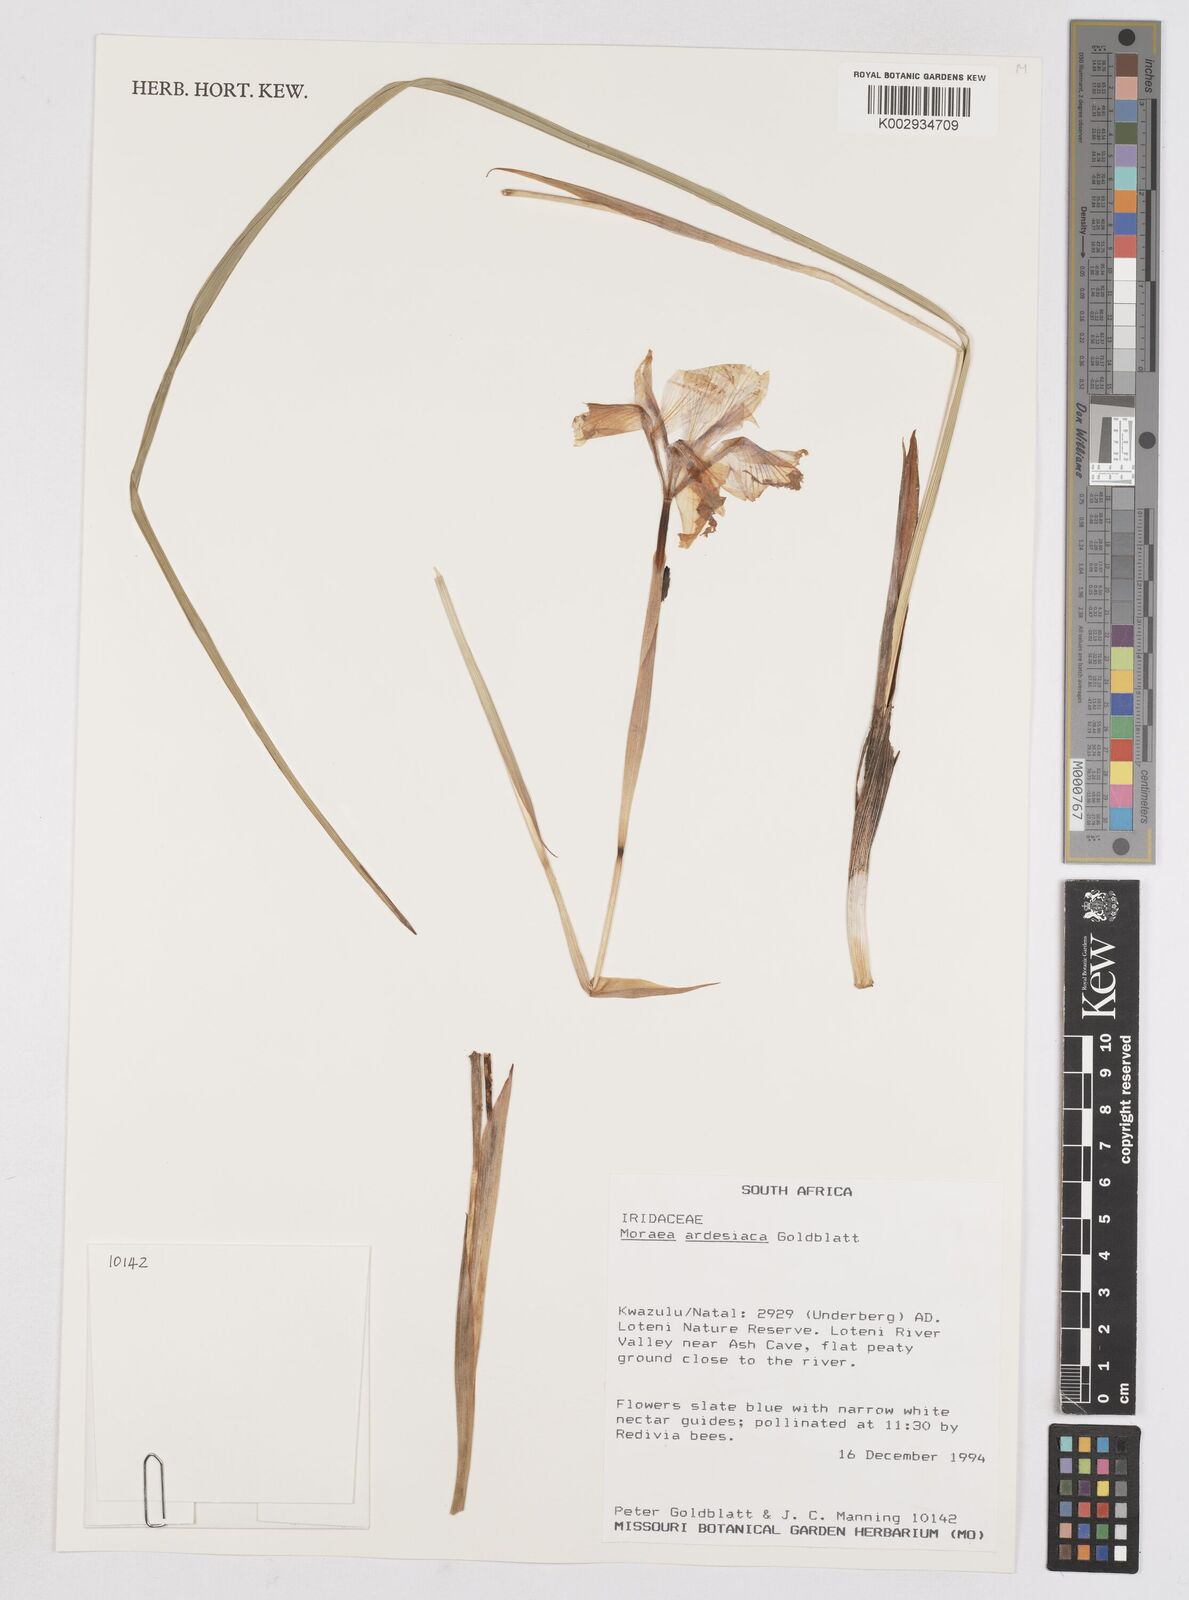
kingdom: Plantae
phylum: Tracheophyta
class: Liliopsida
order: Asparagales
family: Iridaceae
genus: Moraea
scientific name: Moraea ardesiaca
